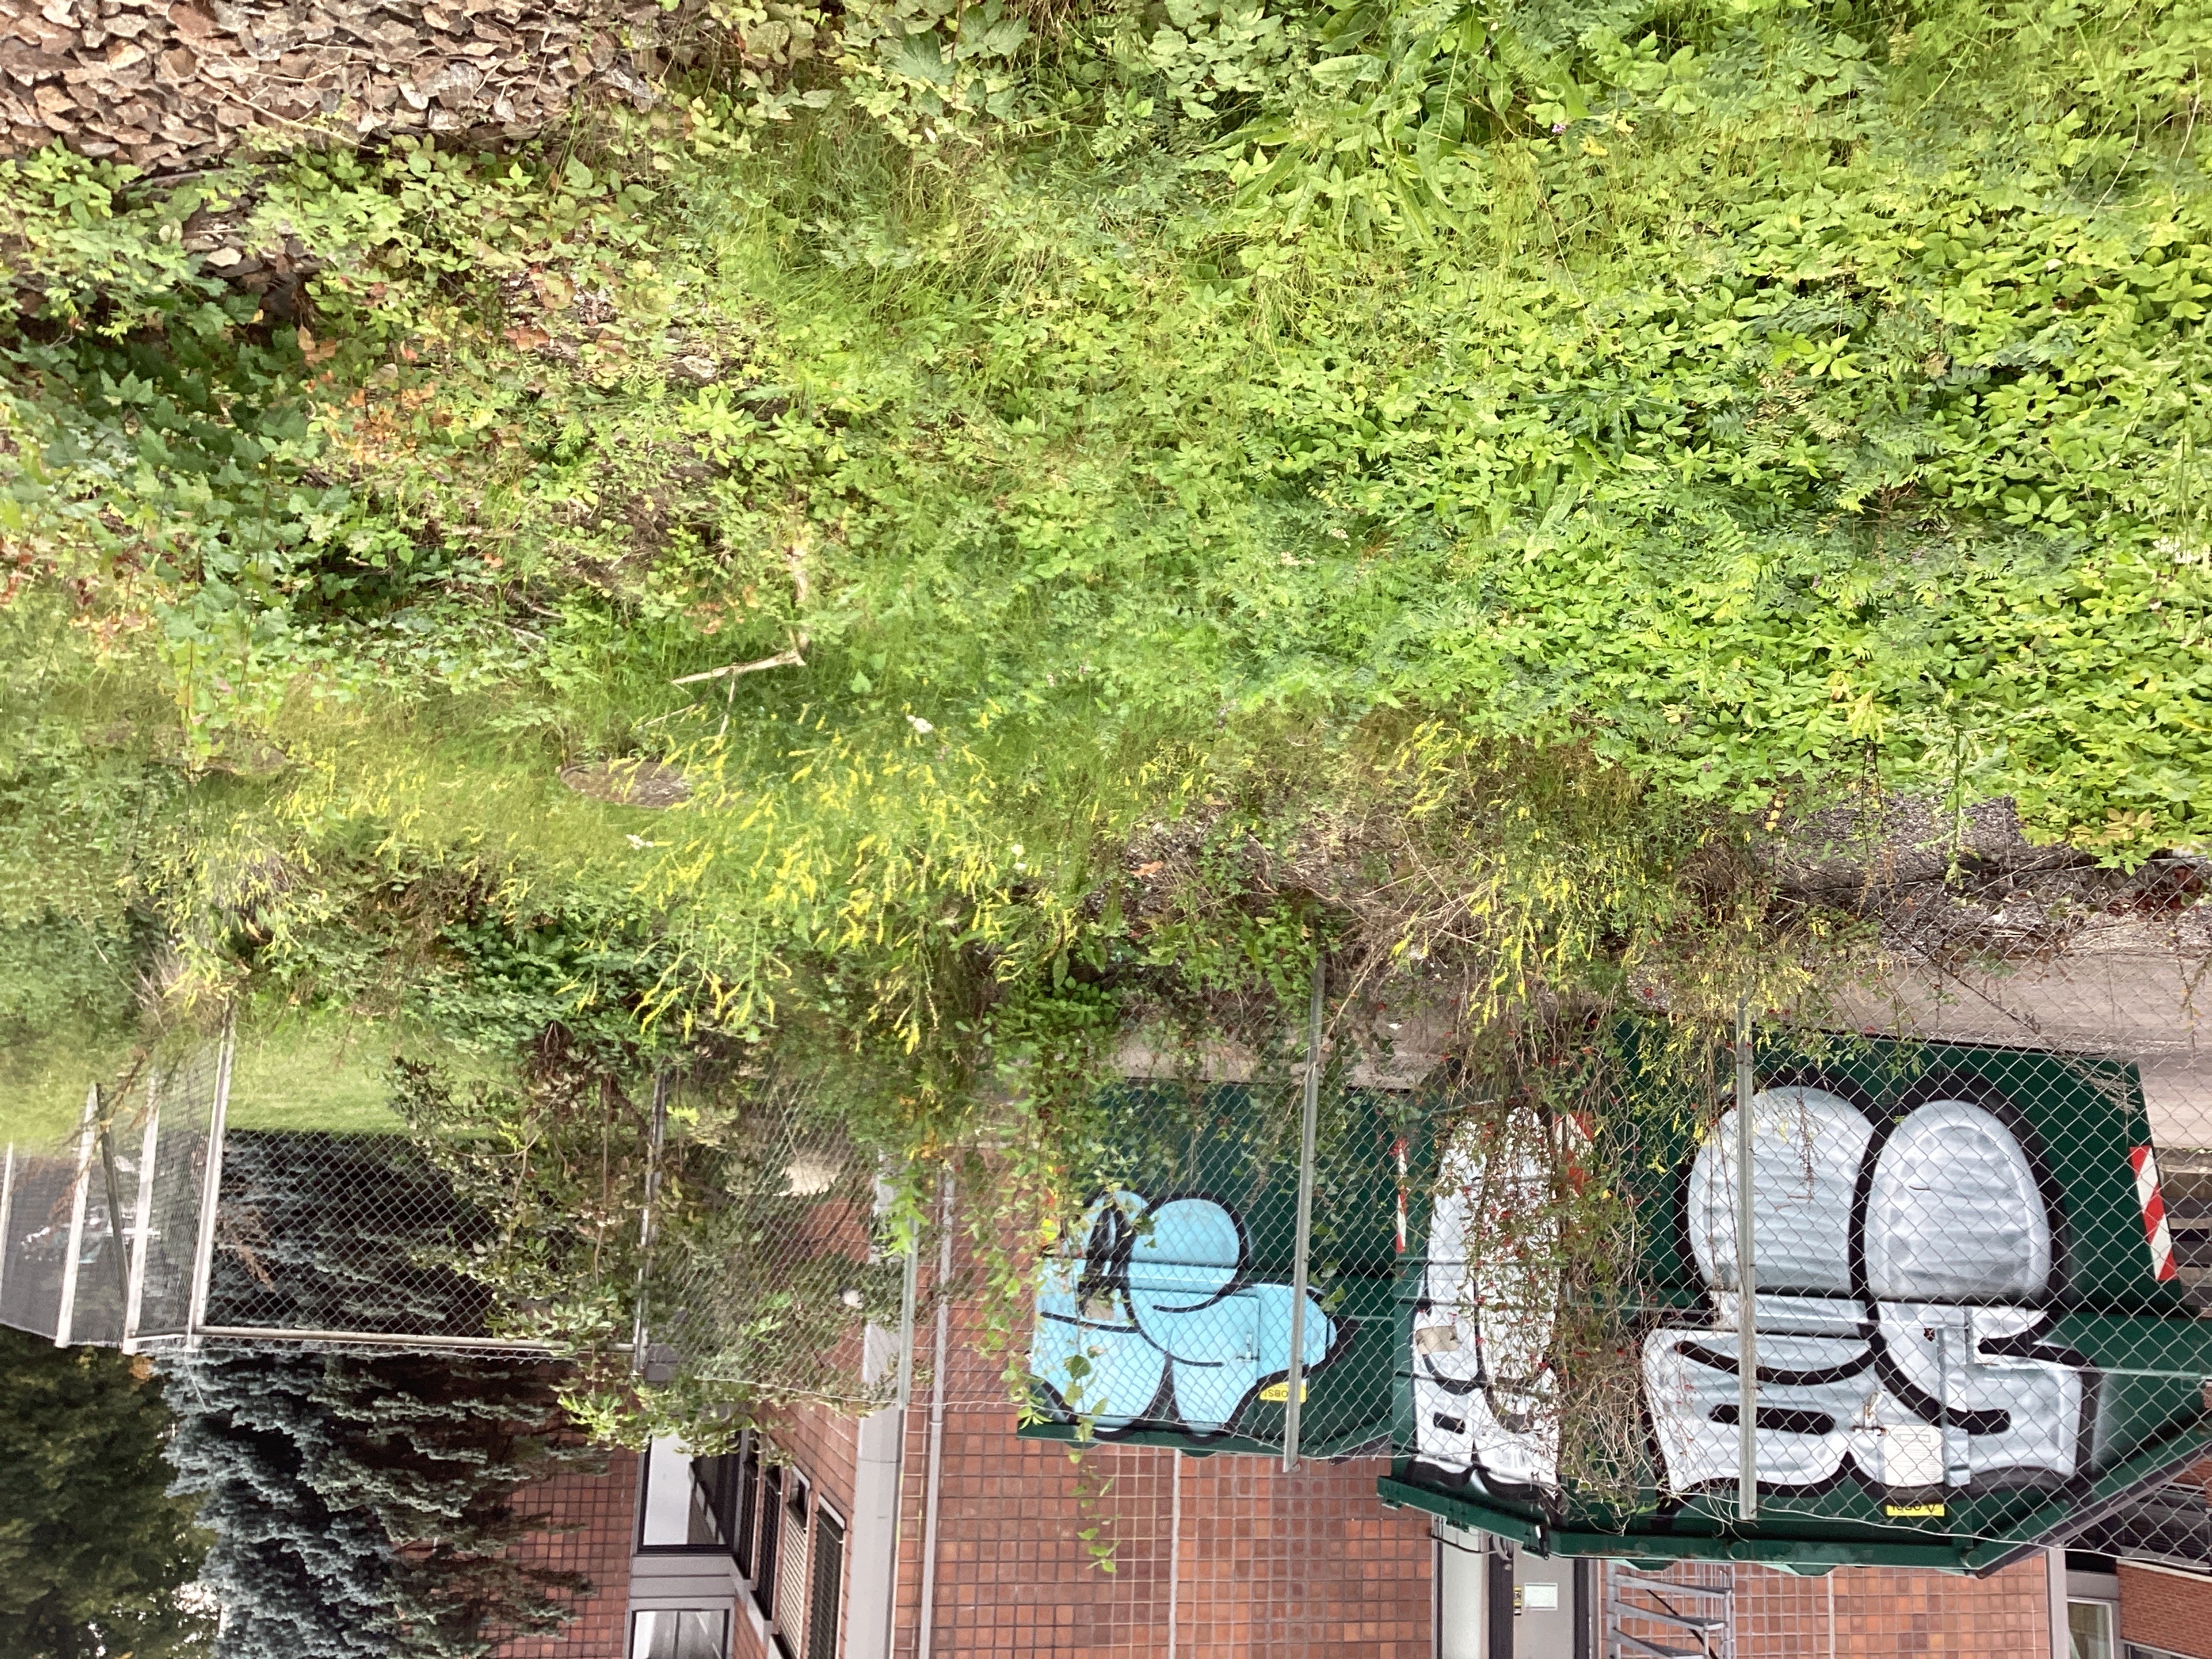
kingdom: Plantae
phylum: Tracheophyta
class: Magnoliopsida
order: Fabales
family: Fabaceae
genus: Melilotus
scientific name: Melilotus officinalis
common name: legesteinkløver
